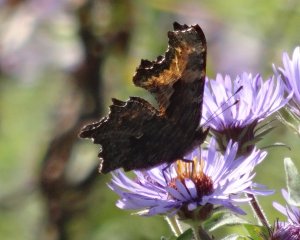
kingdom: Animalia
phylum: Arthropoda
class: Insecta
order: Lepidoptera
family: Nymphalidae
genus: Polygonia
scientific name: Polygonia progne
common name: Gray Comma
